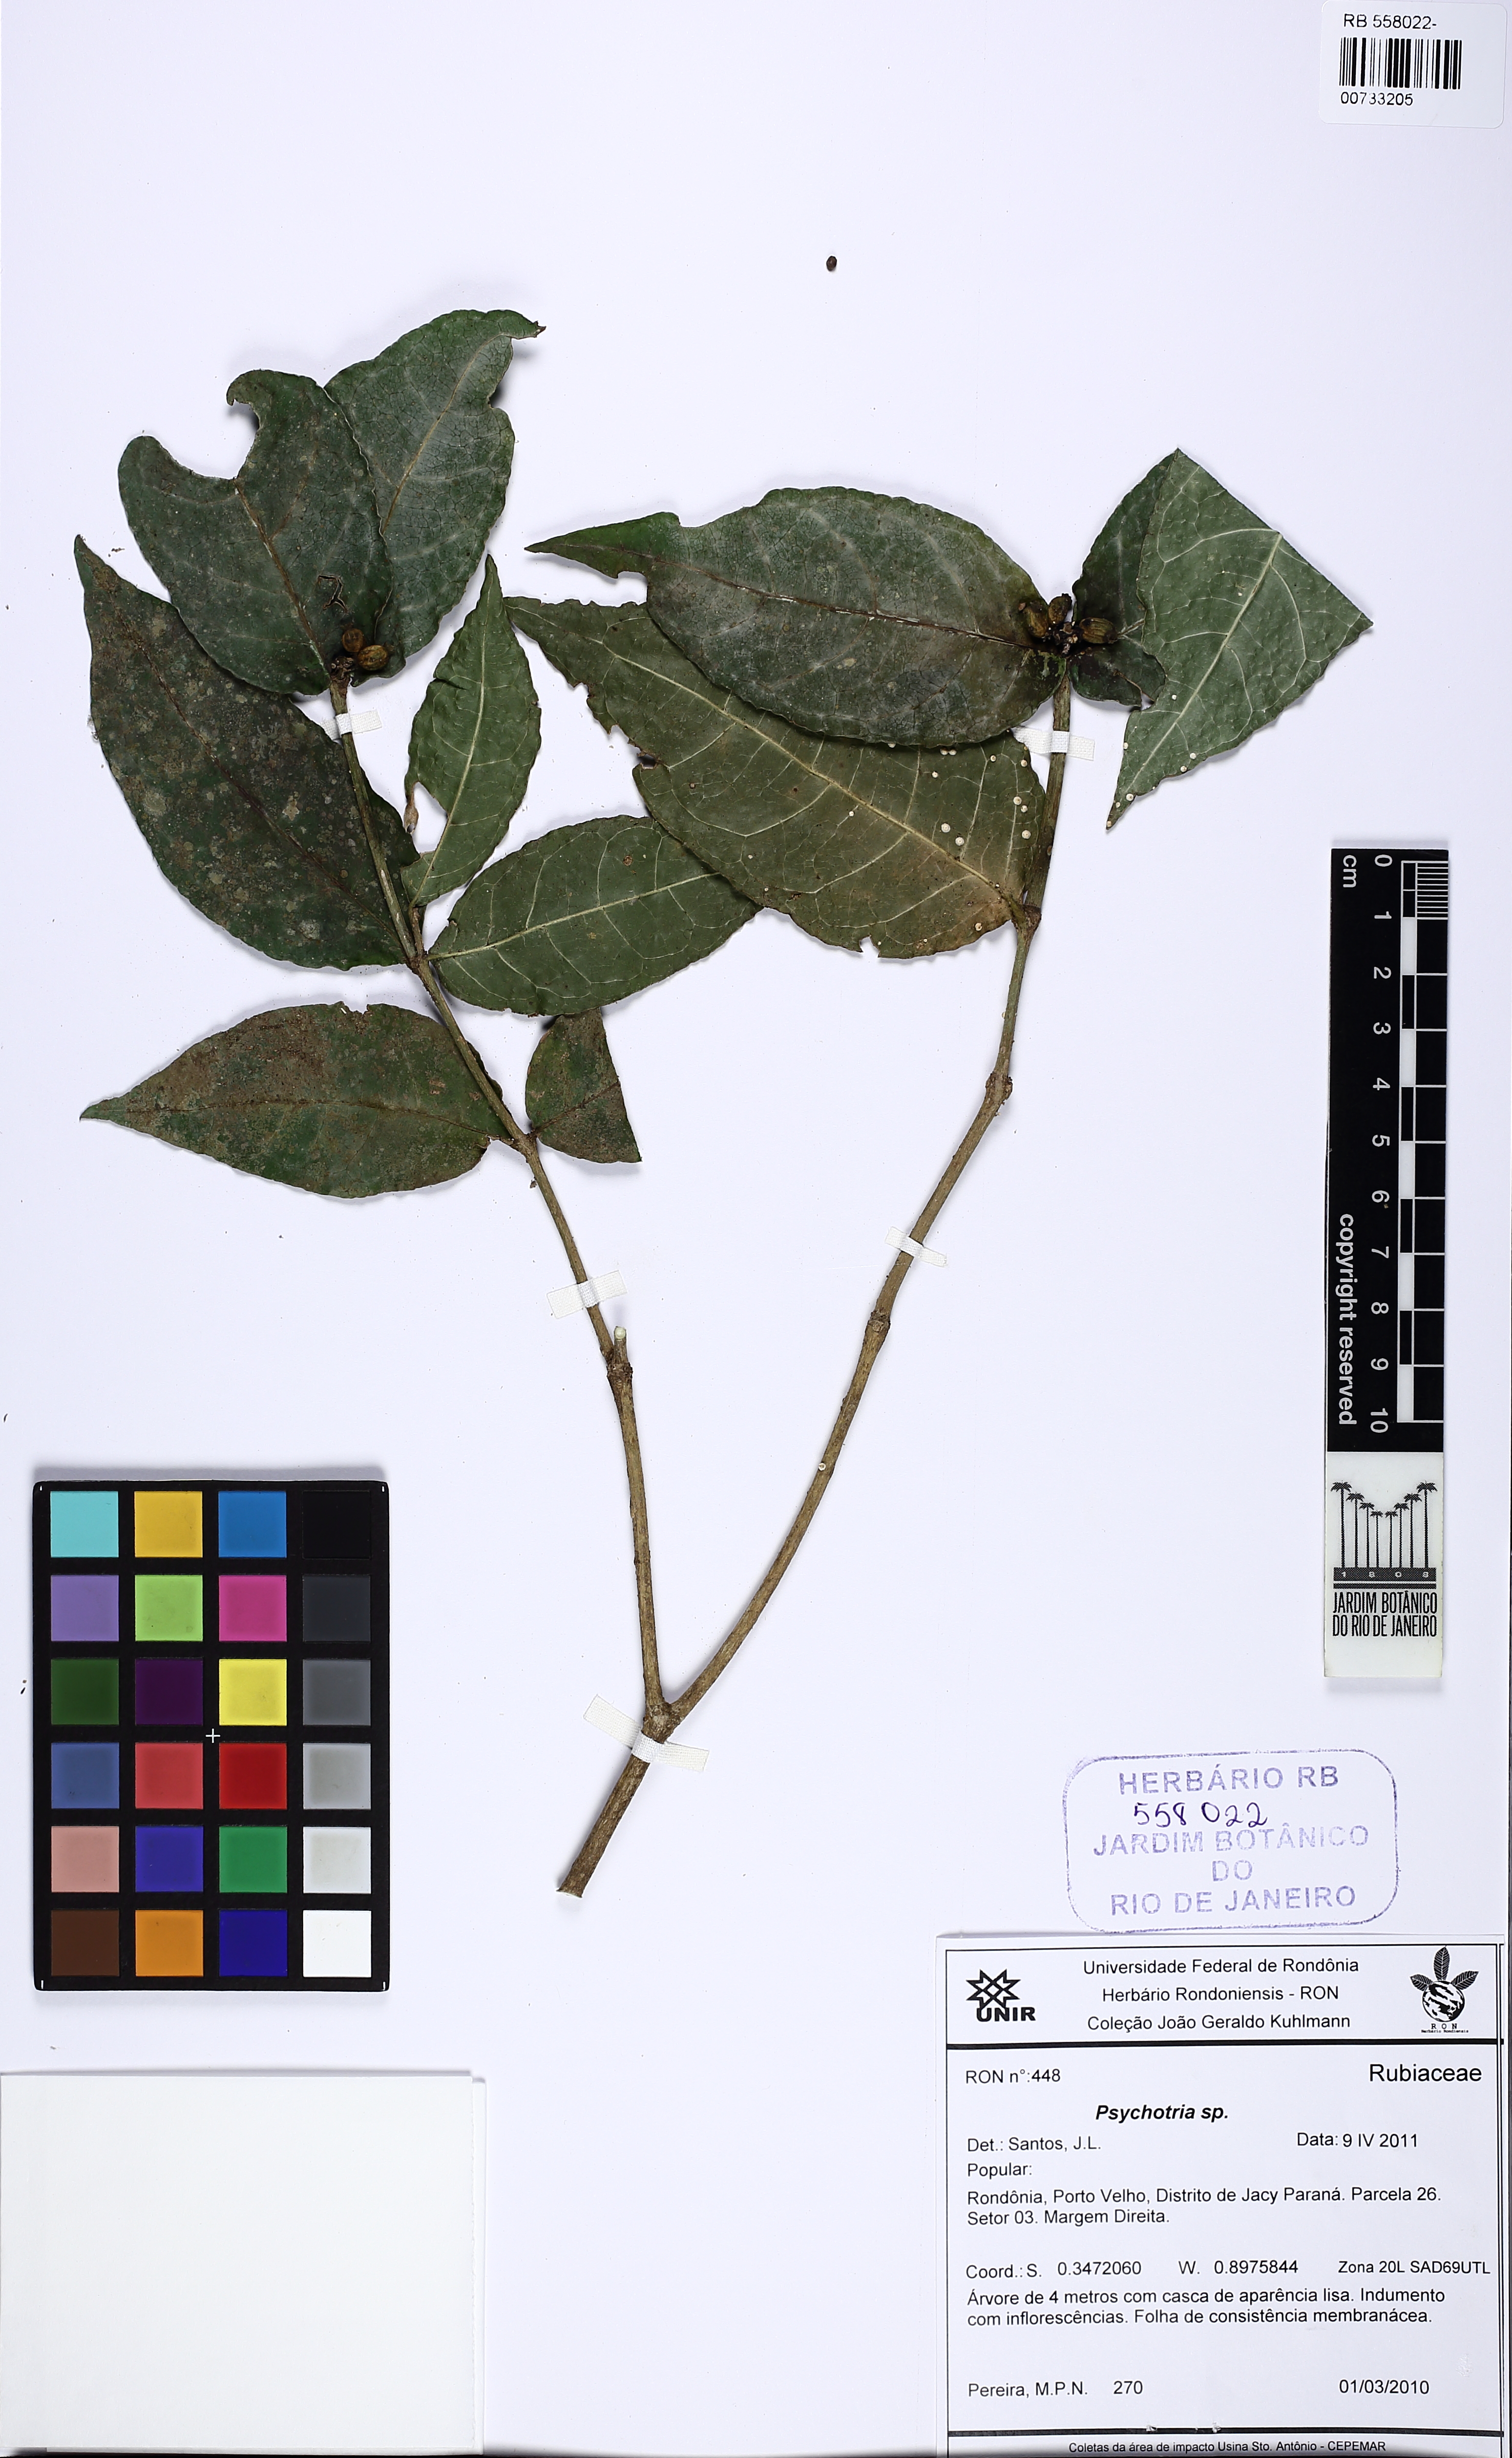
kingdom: Plantae
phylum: Tracheophyta
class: Magnoliopsida
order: Gentianales
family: Rubiaceae
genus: Rudgea
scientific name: Rudgea
